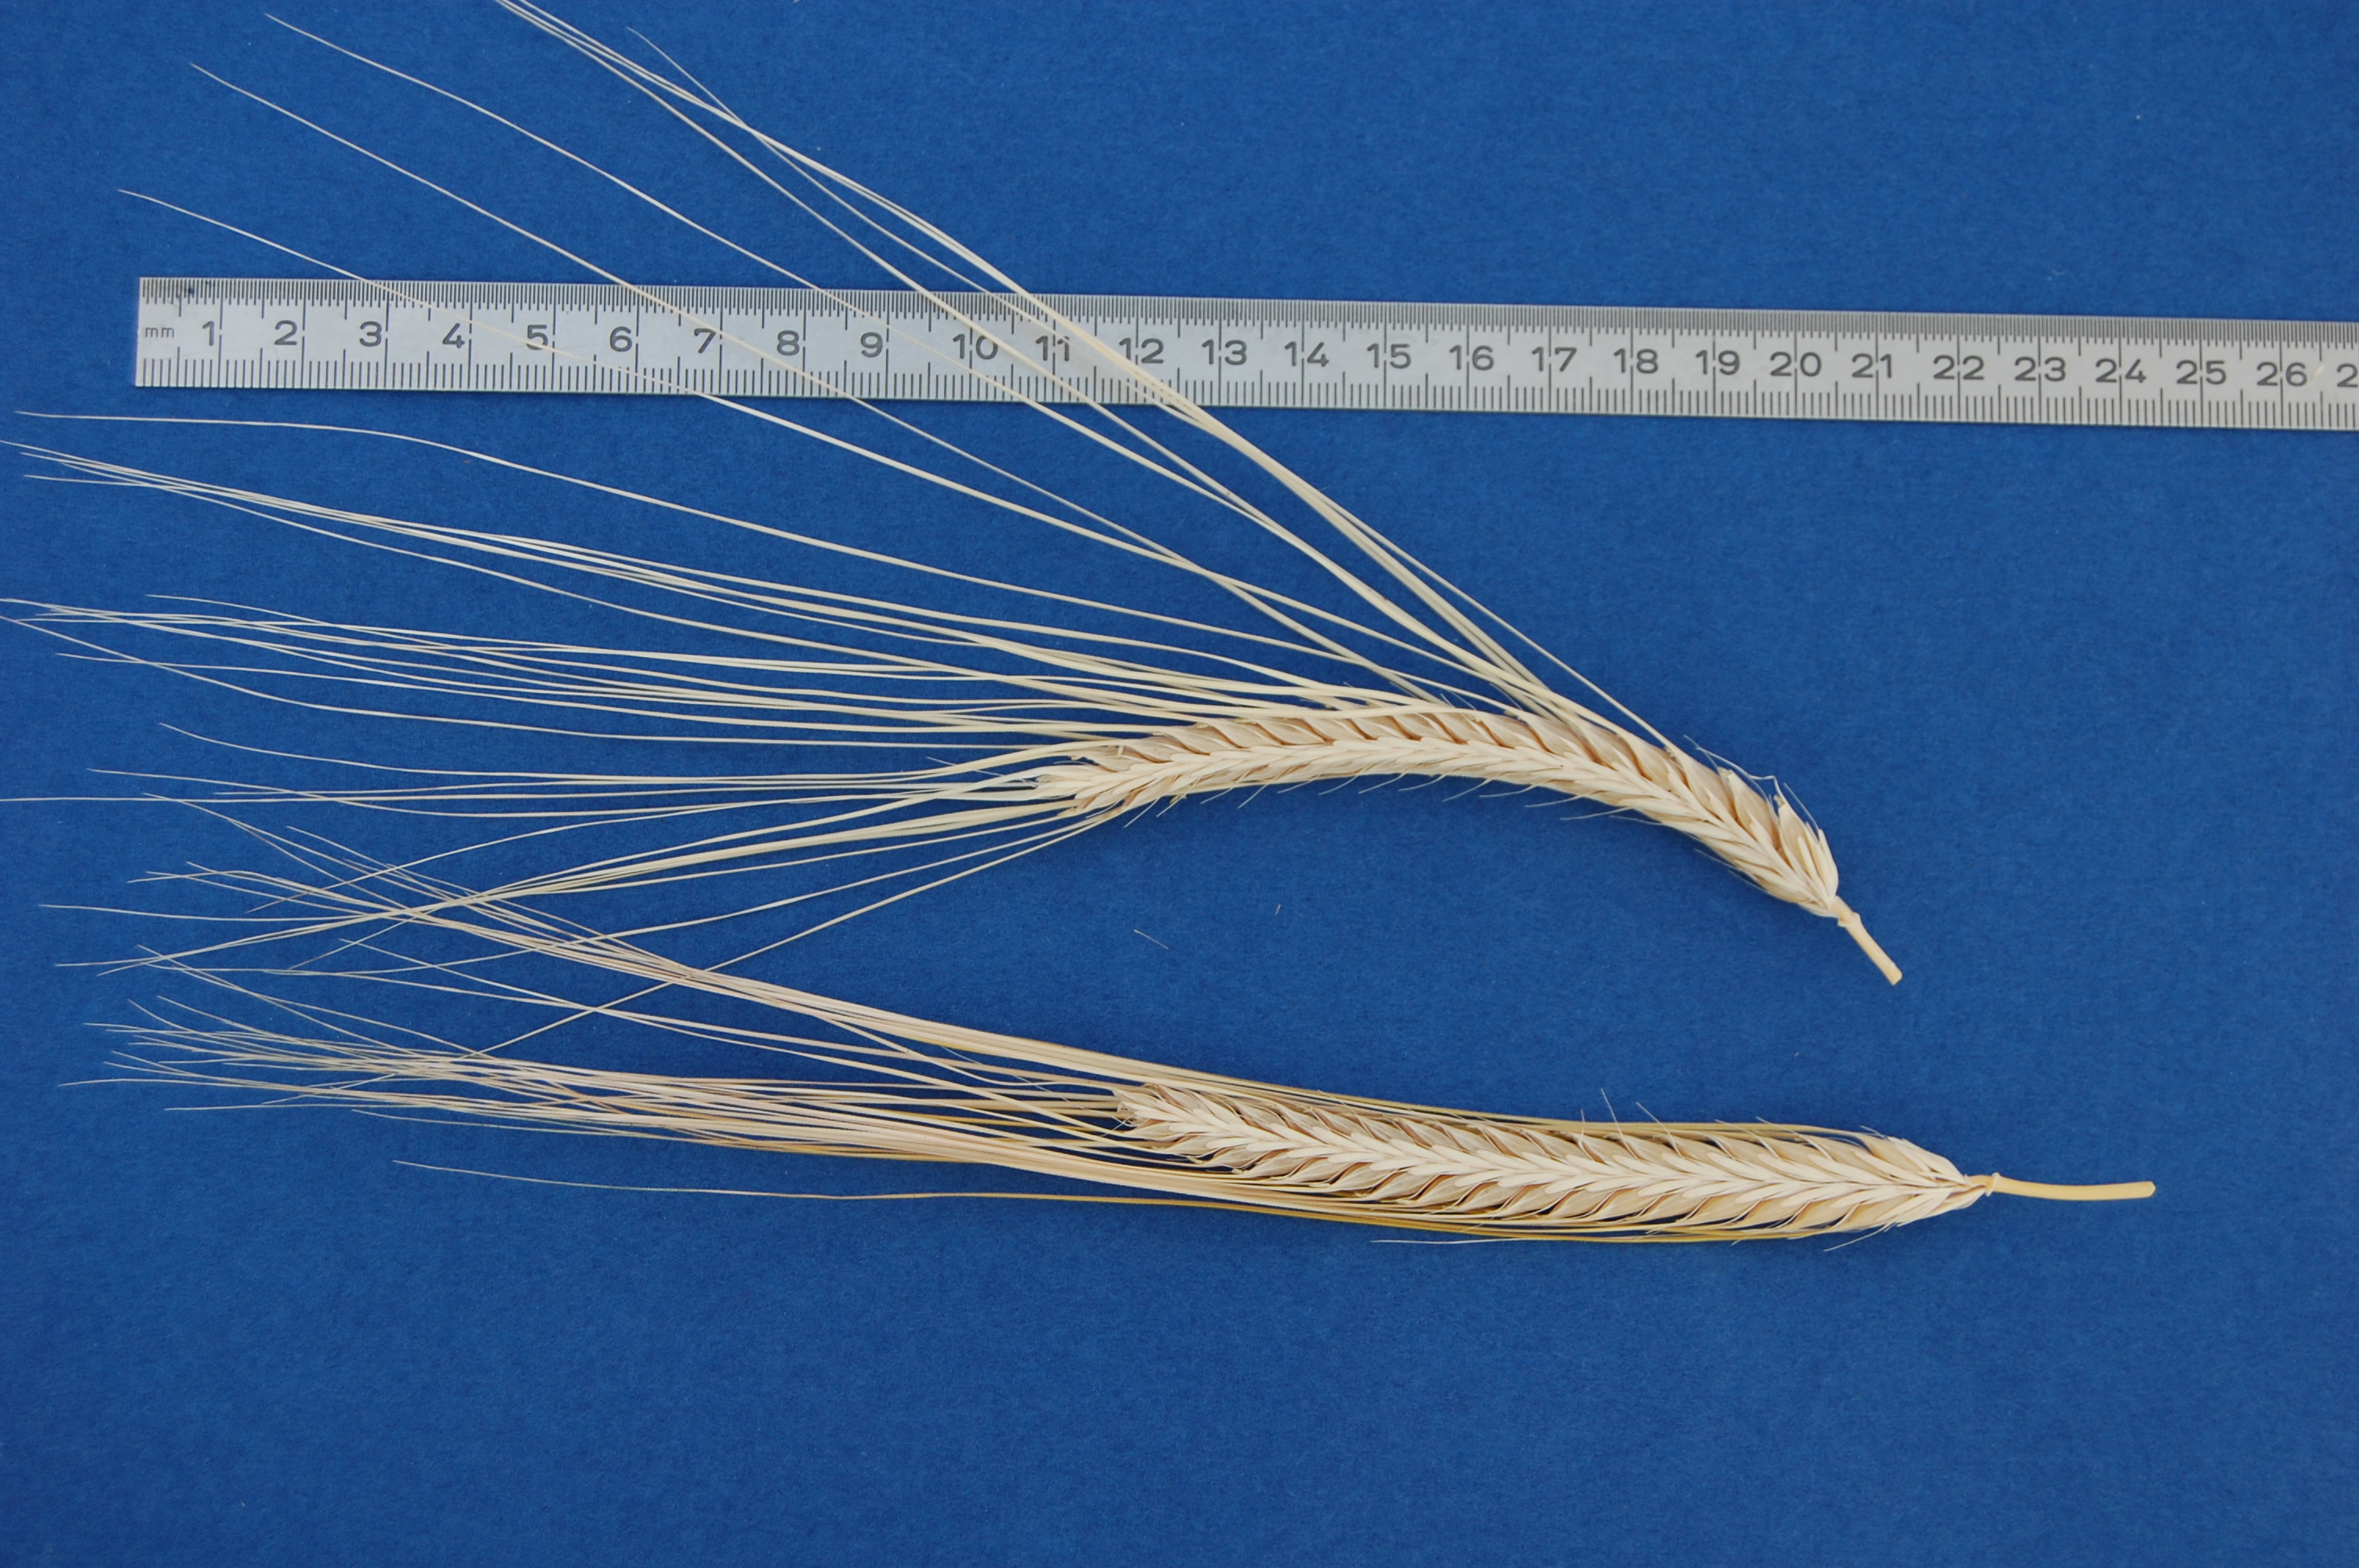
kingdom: Plantae
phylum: Tracheophyta
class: Liliopsida
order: Poales
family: Poaceae
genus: Hordeum
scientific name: Hordeum vulgare
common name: Common barley
